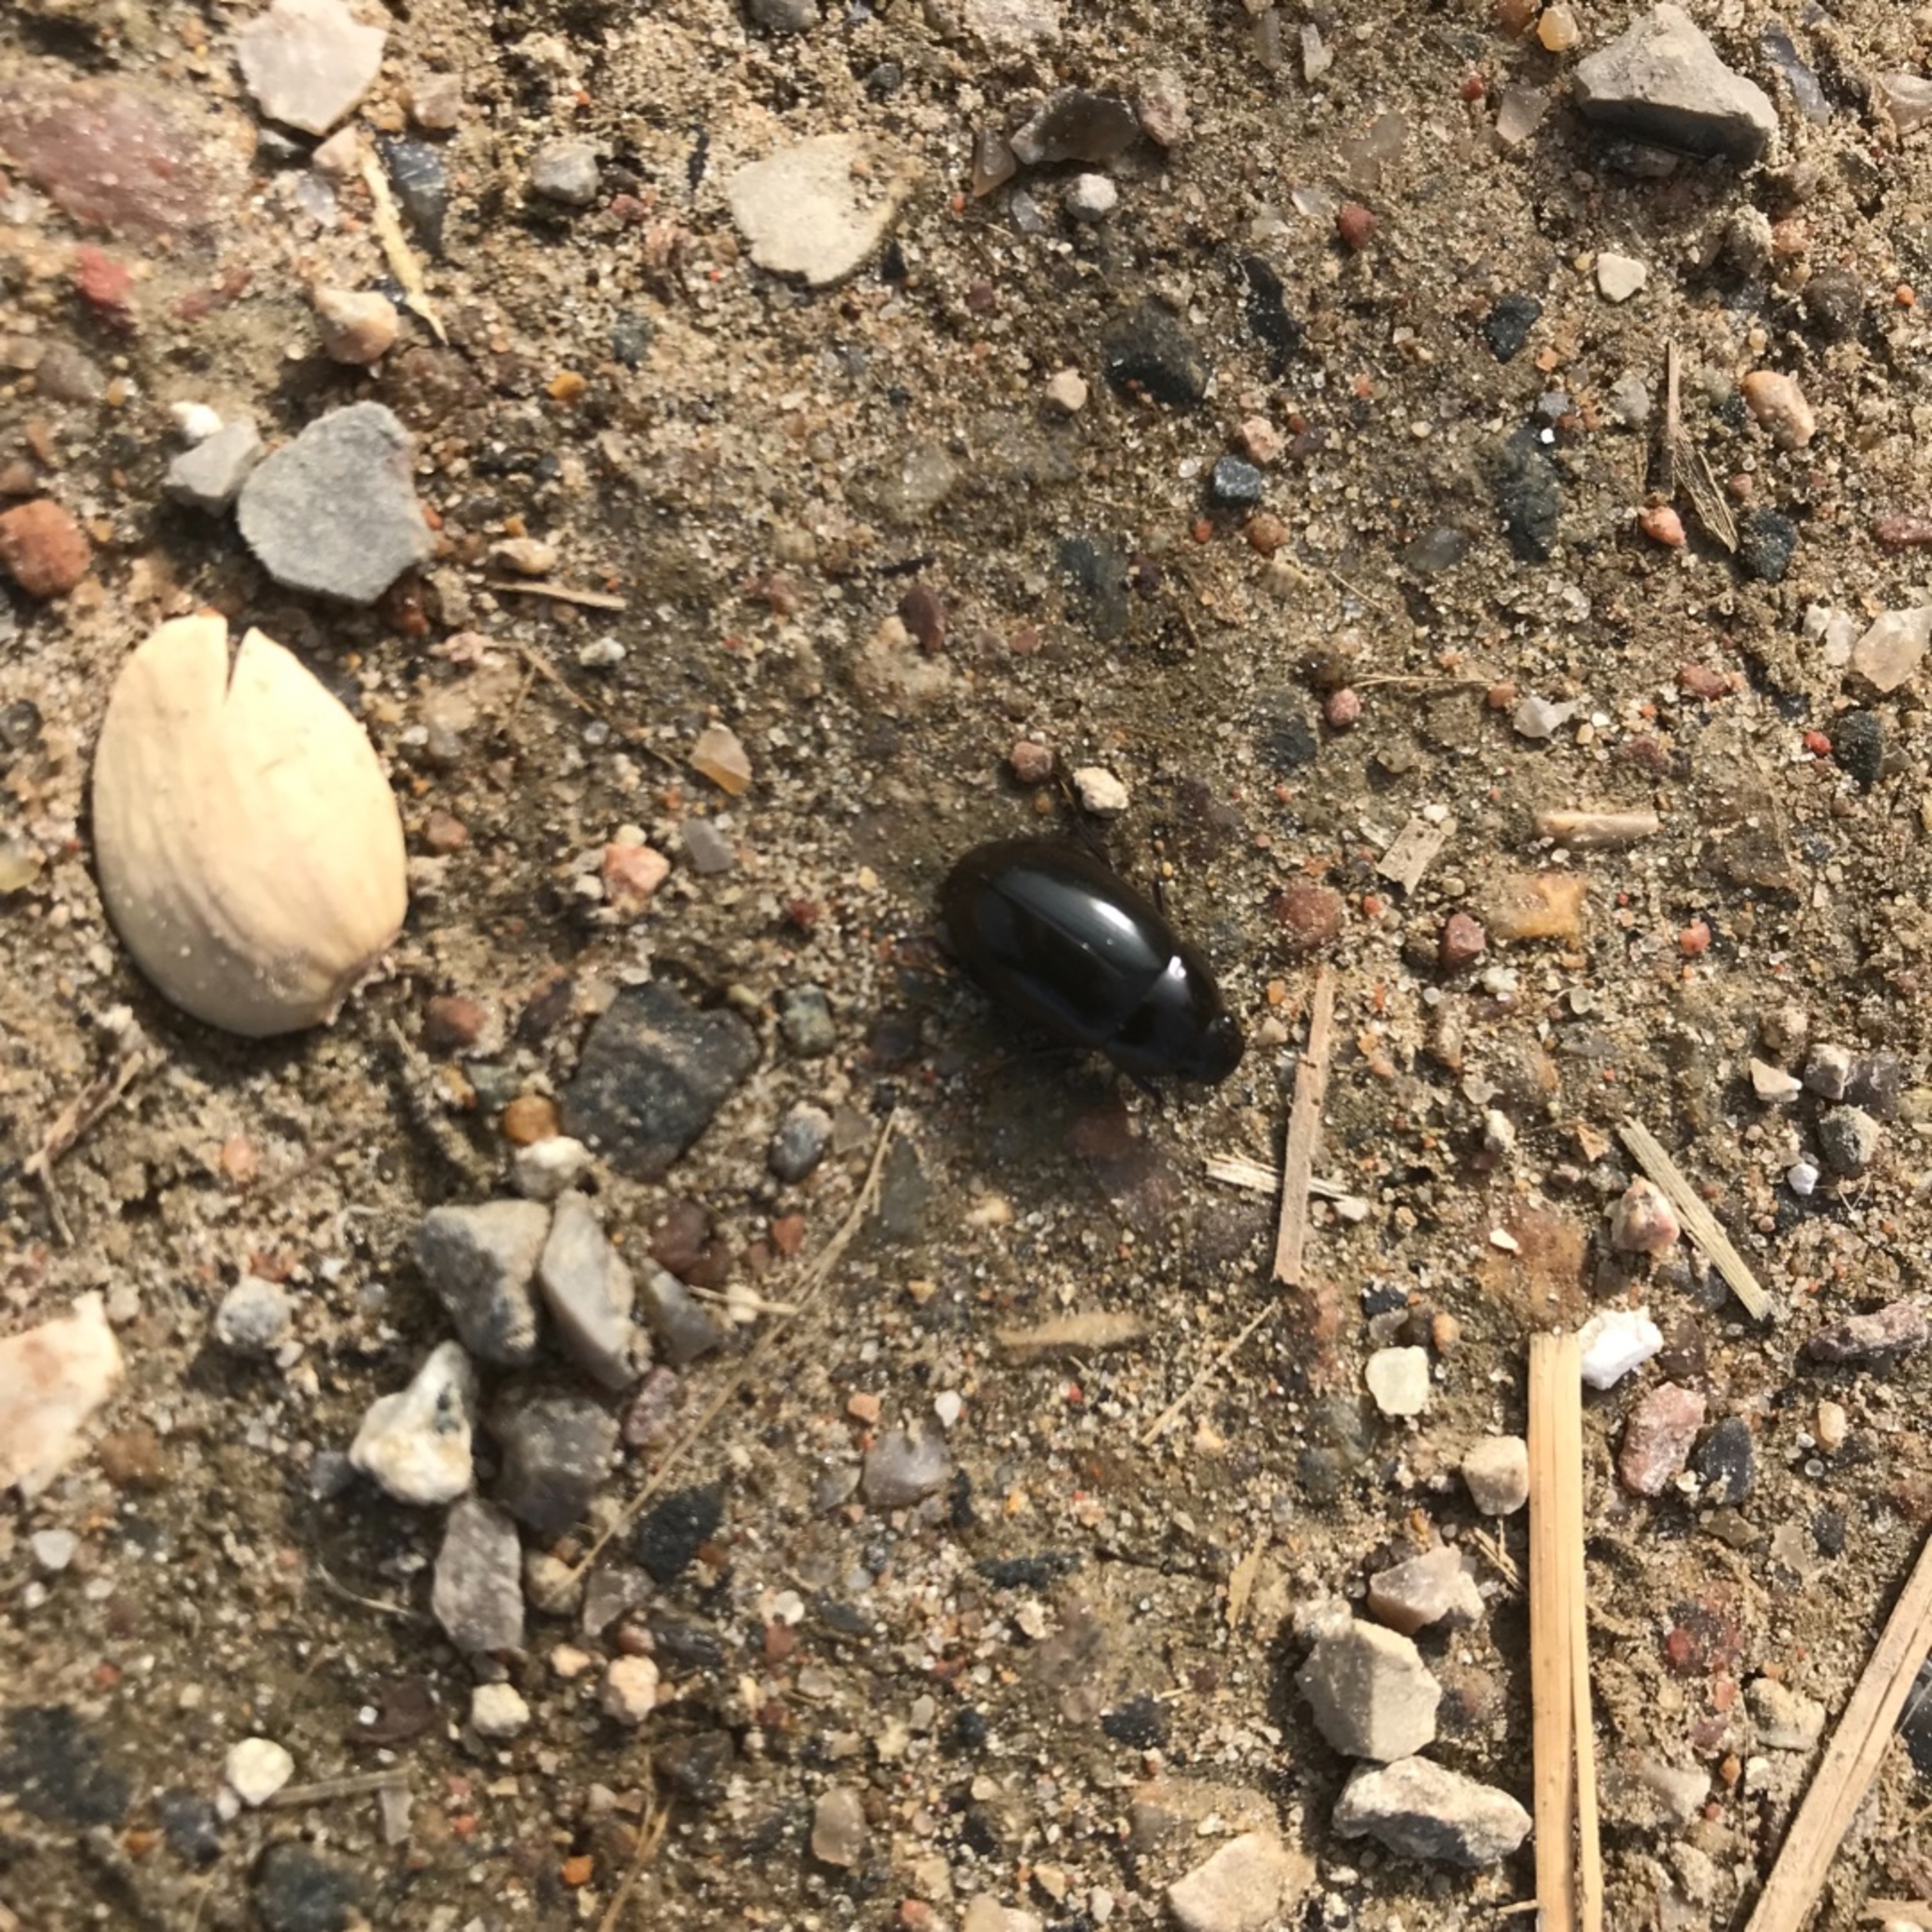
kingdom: Animalia
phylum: Arthropoda
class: Insecta
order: Coleoptera
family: Hydrophilidae
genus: Hydrochara
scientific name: Hydrochara caraboides
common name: Mellemstor vandkær
